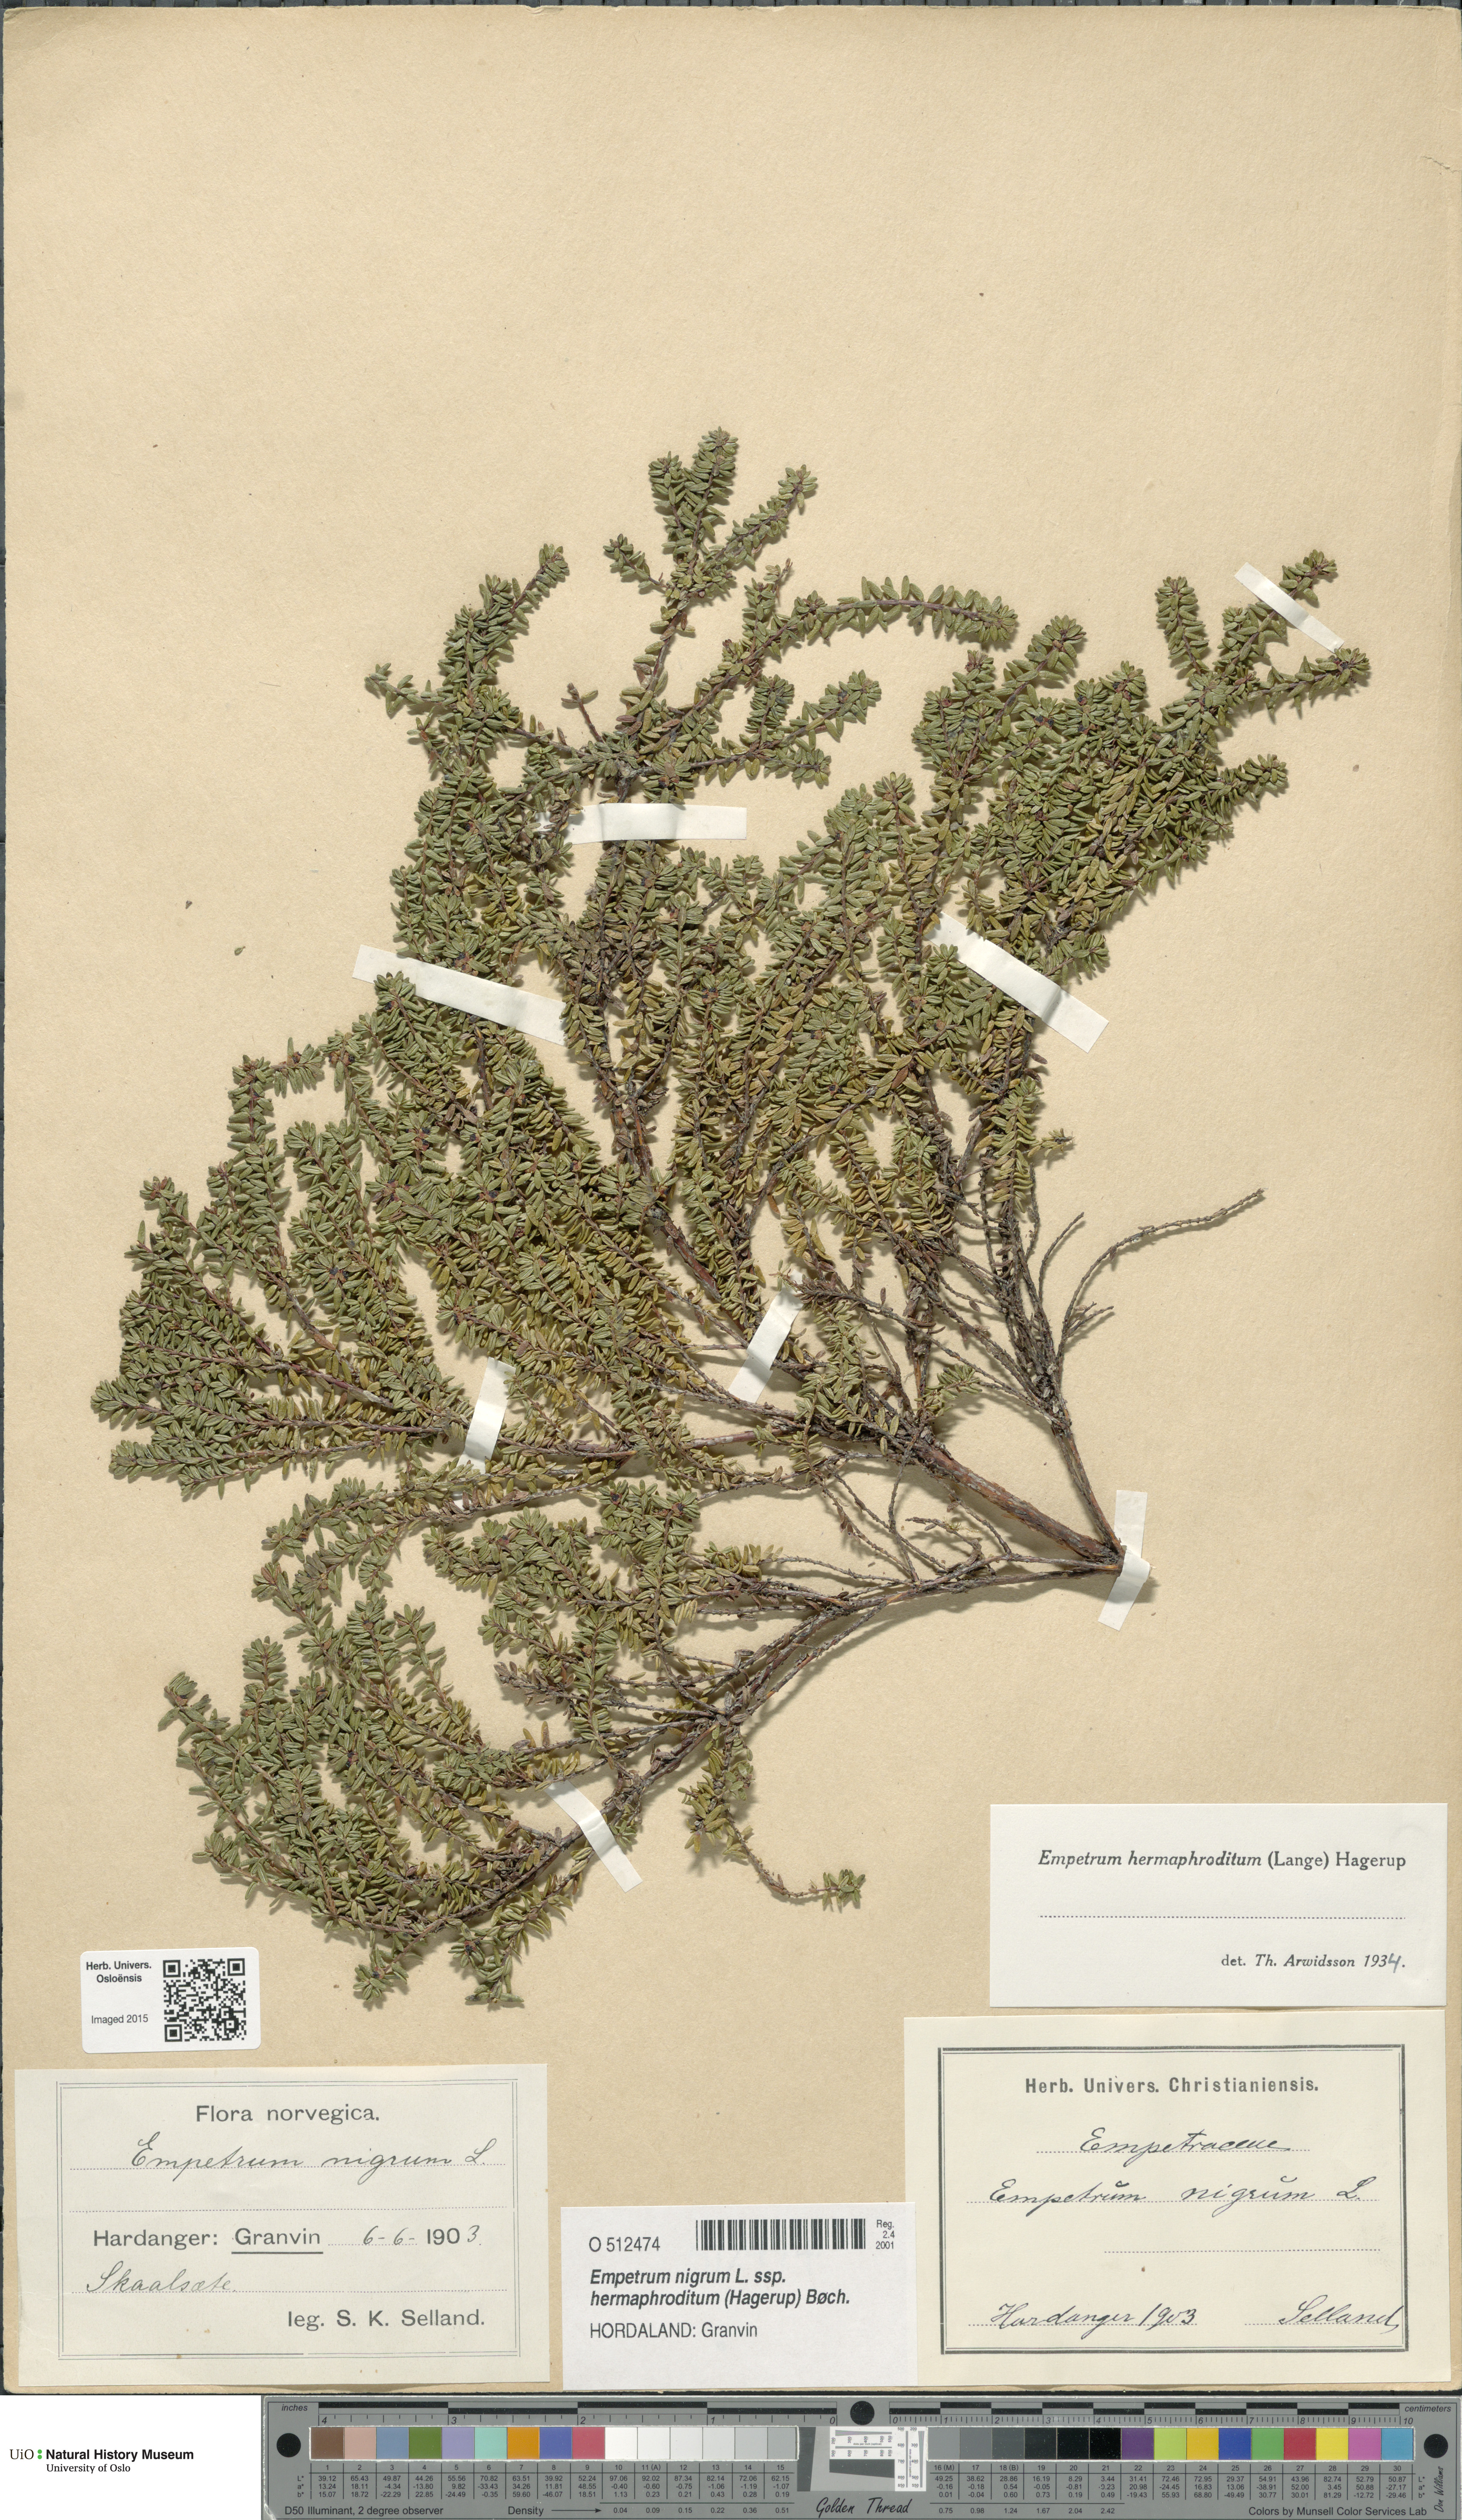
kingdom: Plantae
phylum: Tracheophyta
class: Magnoliopsida
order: Ericales
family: Ericaceae
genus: Empetrum
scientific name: Empetrum
